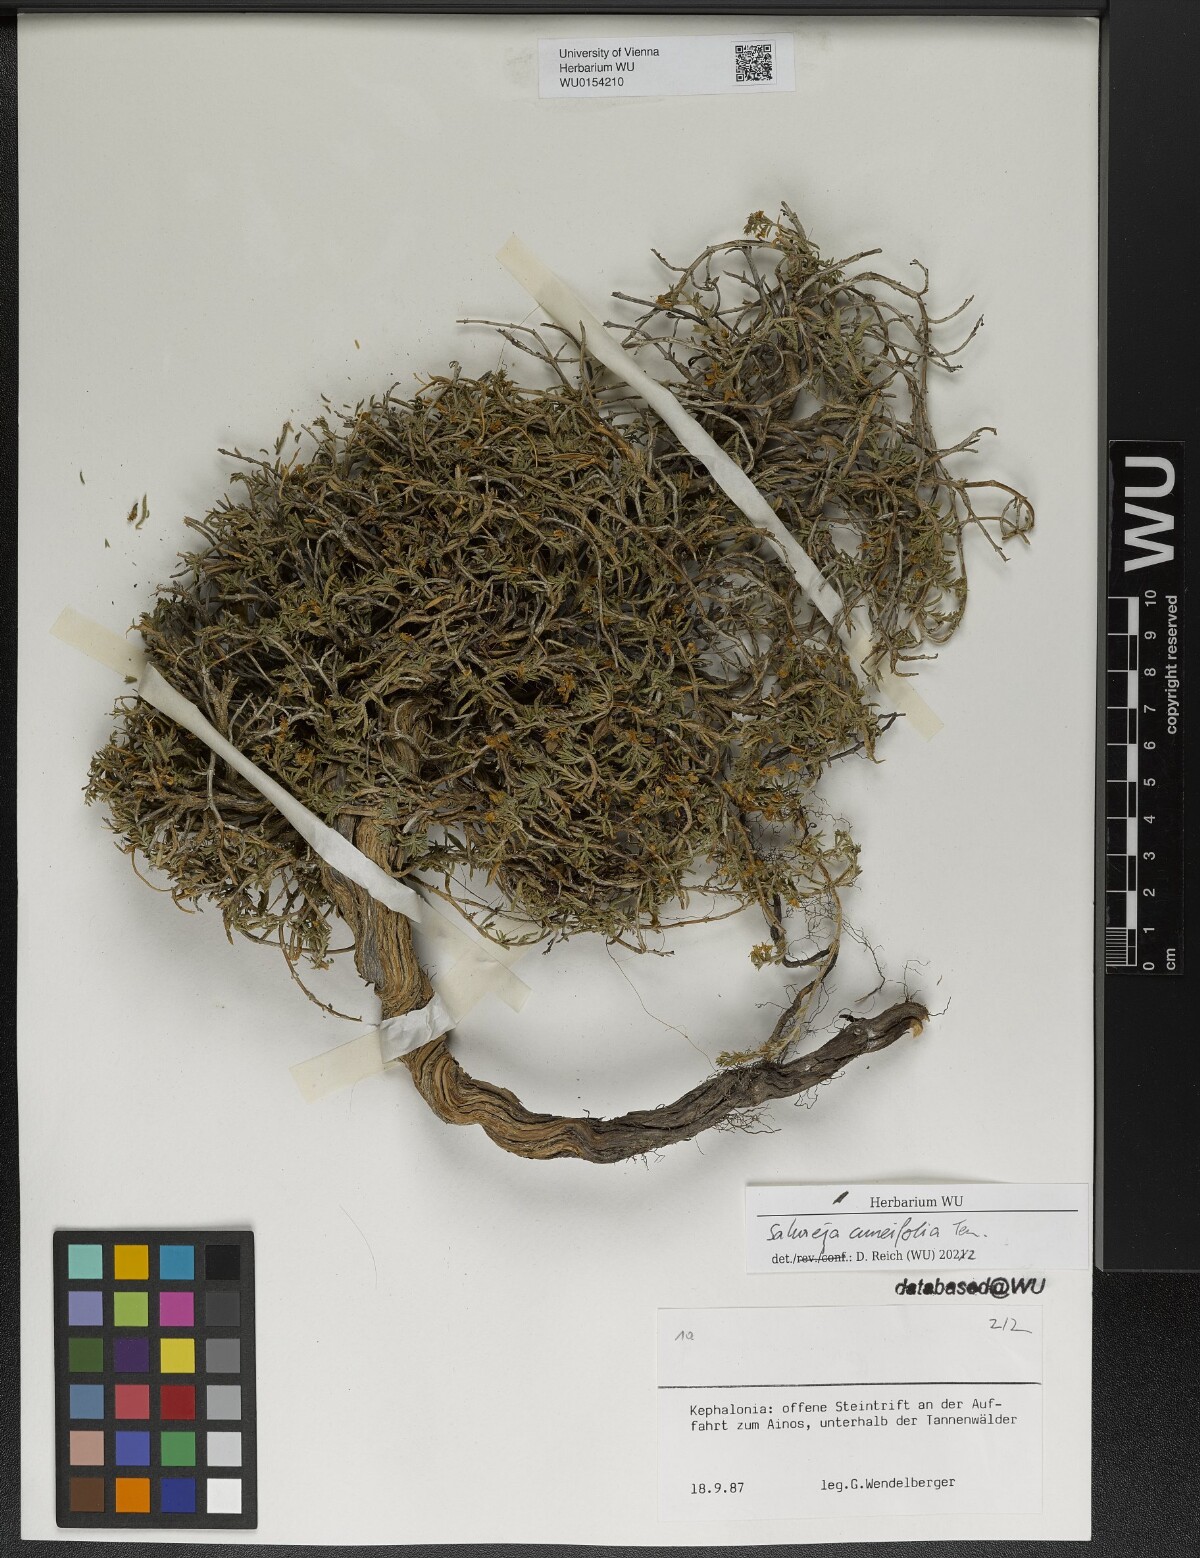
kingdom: Plantae
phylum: Tracheophyta
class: Magnoliopsida
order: Lamiales
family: Lamiaceae
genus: Satureja
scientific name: Satureja cuneifolia
